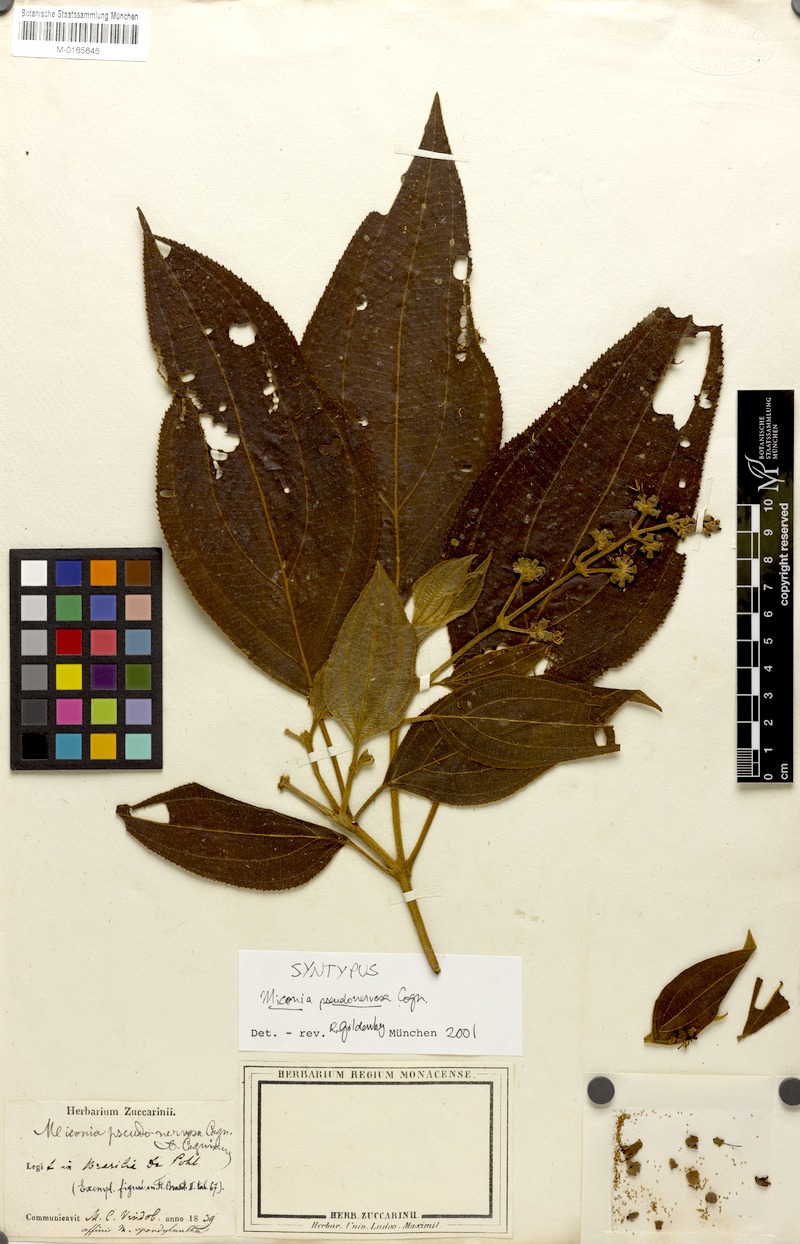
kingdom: Plantae
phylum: Tracheophyta
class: Magnoliopsida
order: Myrtales
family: Melastomataceae
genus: Miconia
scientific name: Miconia pseudonervosa
